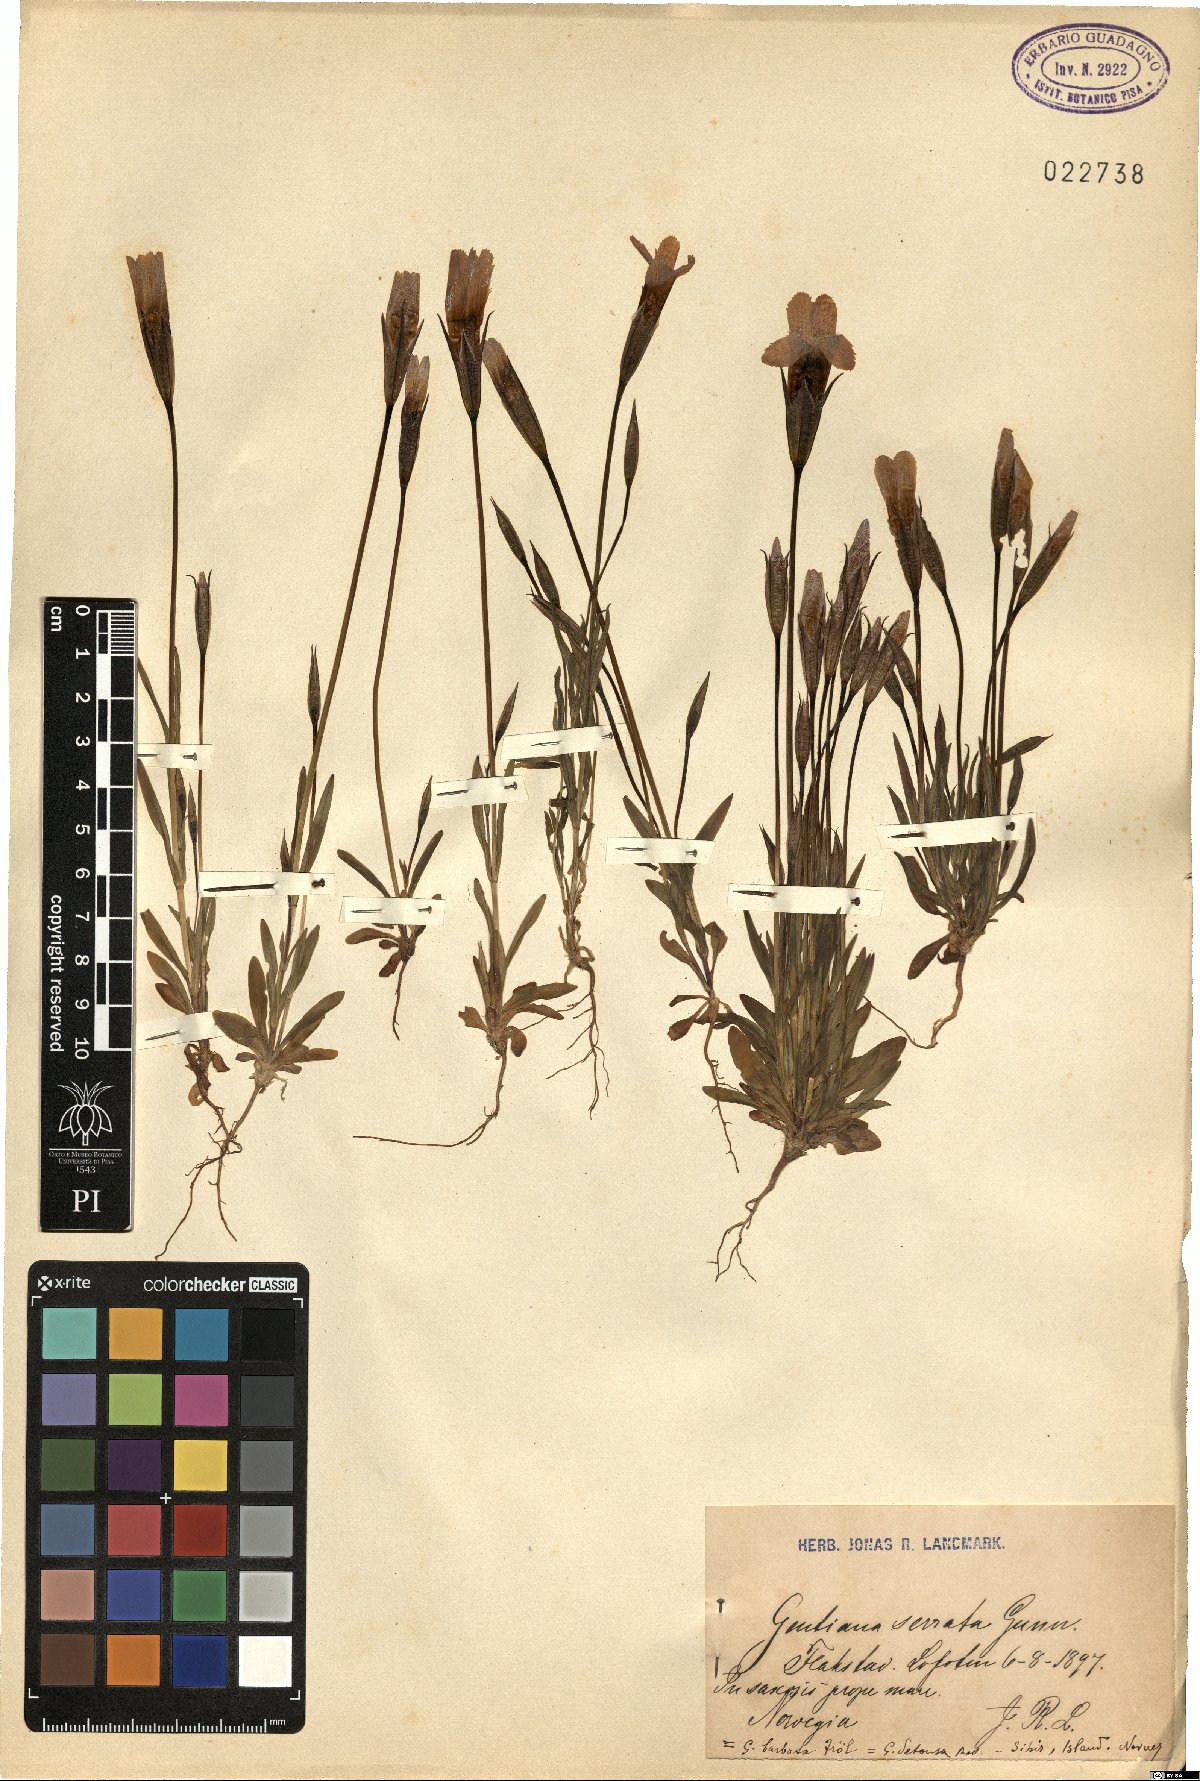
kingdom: Plantae
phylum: Tracheophyta
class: Magnoliopsida
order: Gentianales
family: Gentianaceae
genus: Gentianopsis
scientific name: Gentianopsis detonsa
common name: Fringed-gentian
